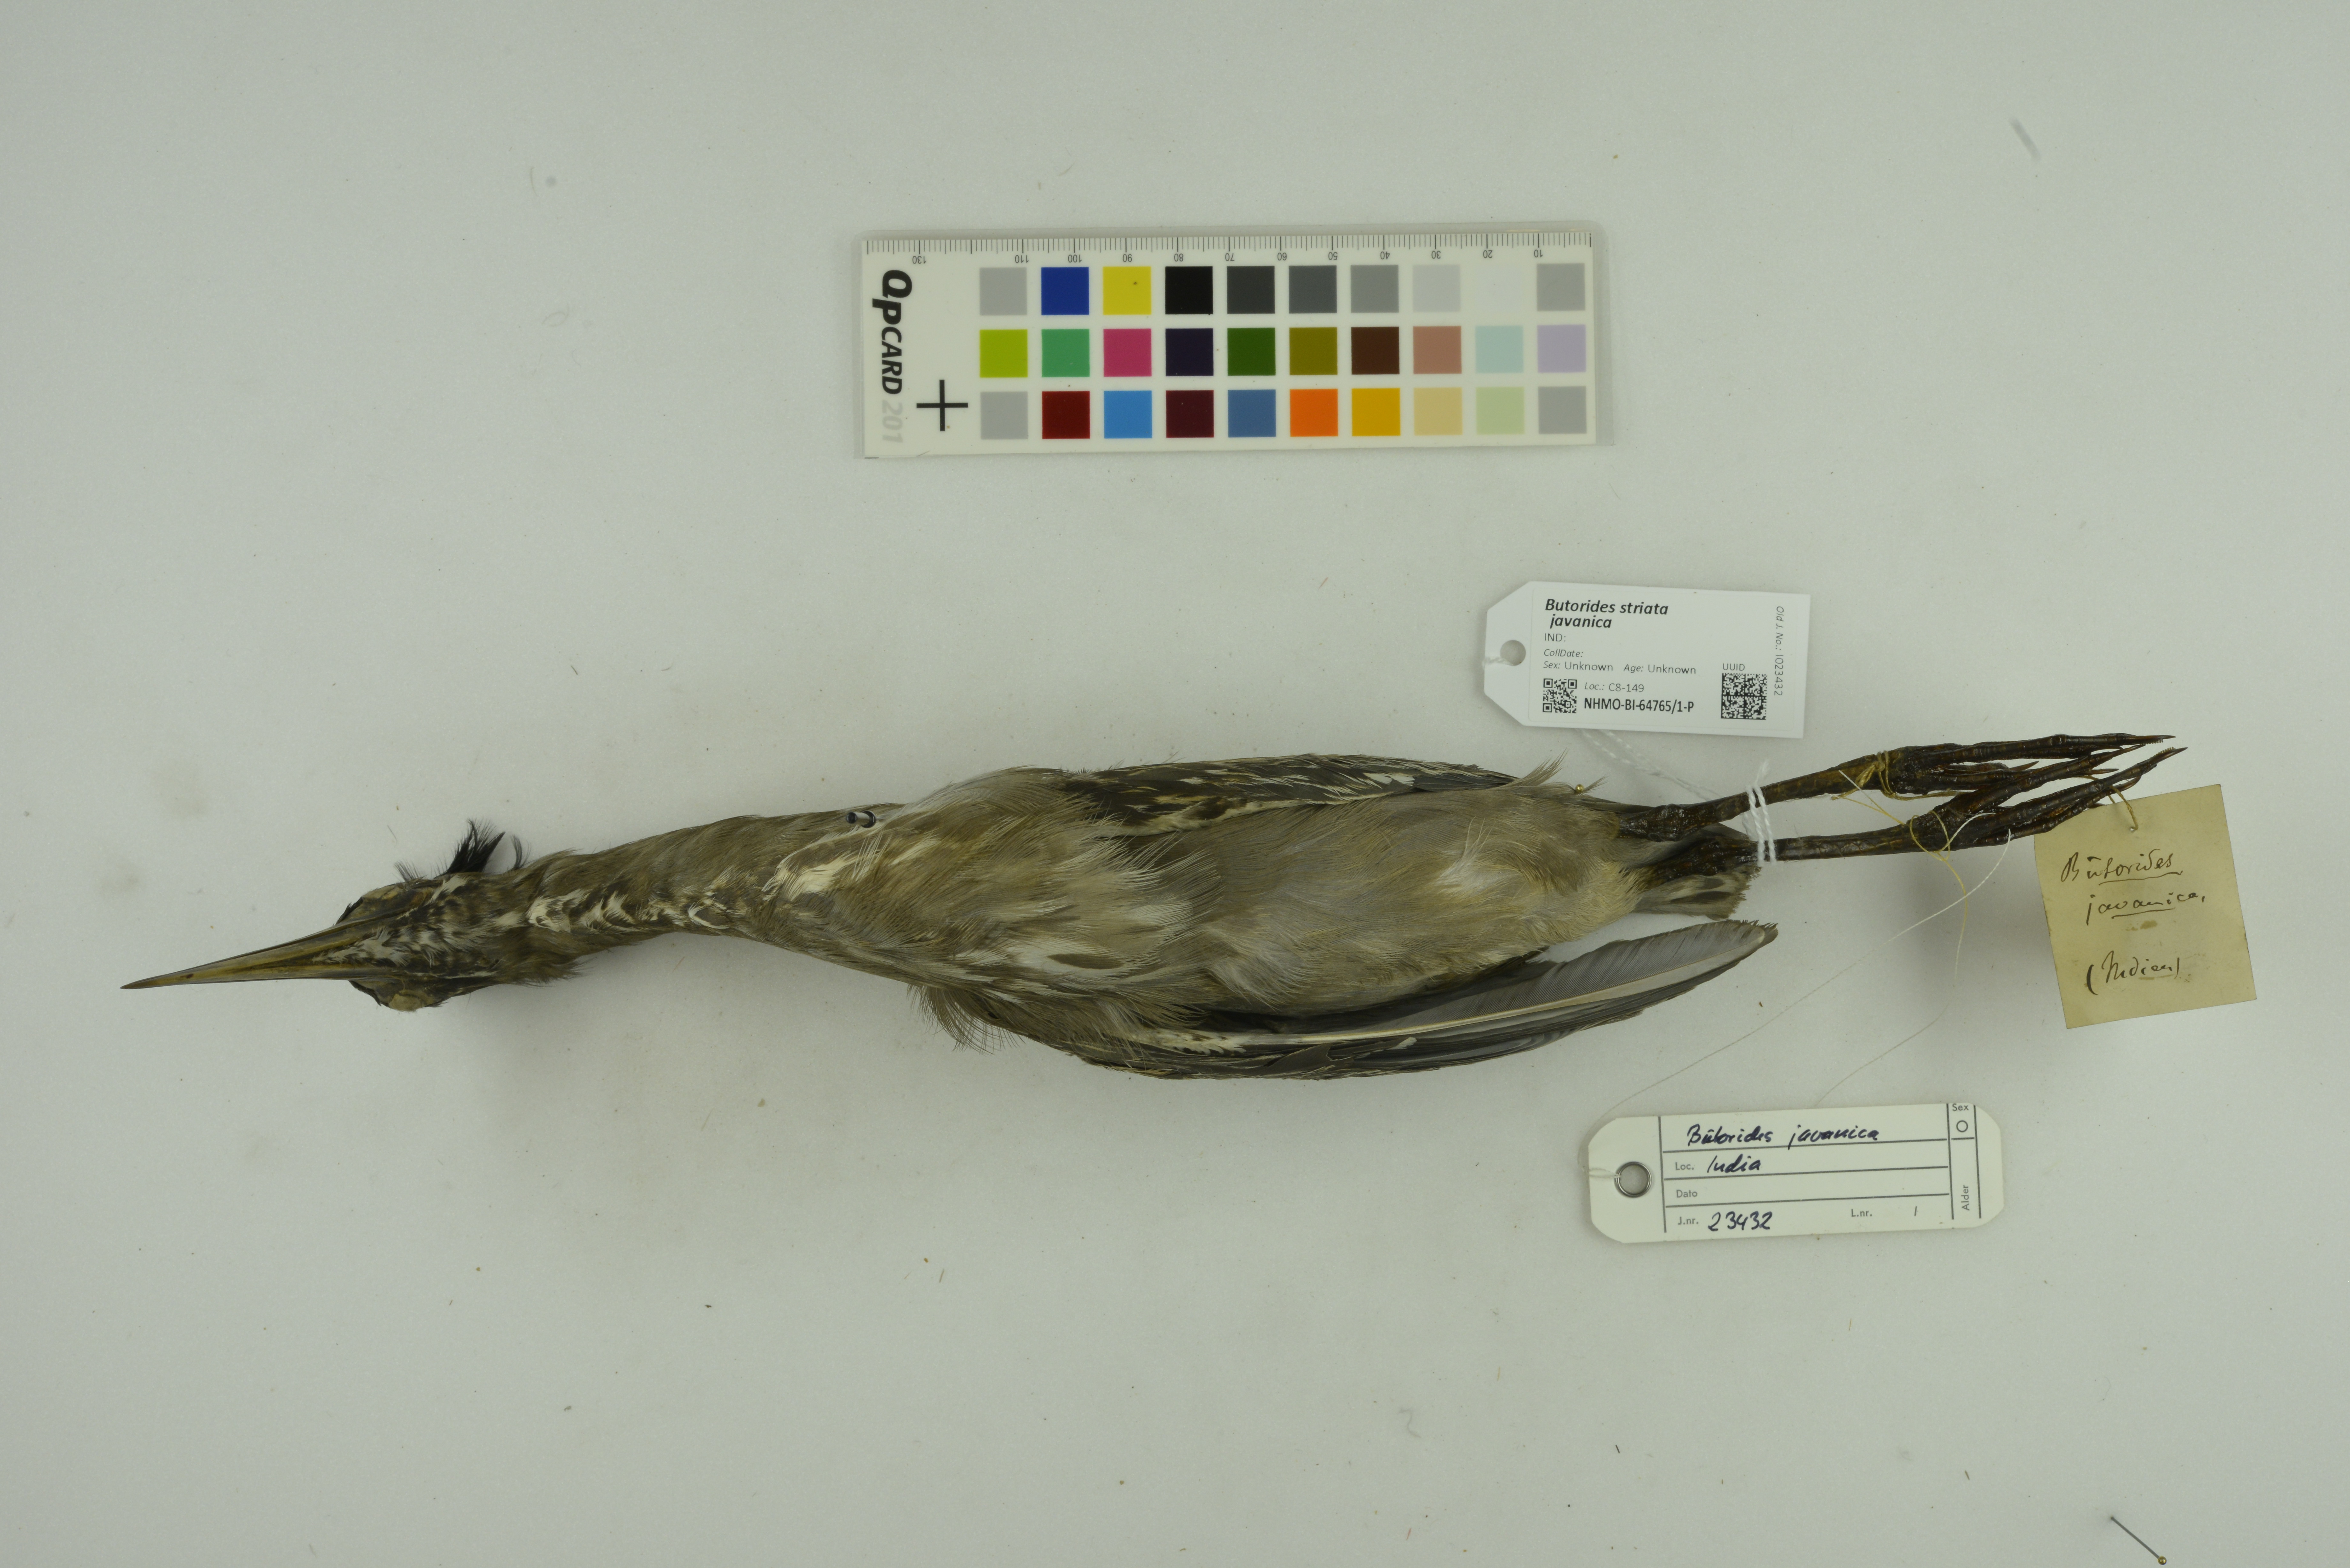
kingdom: Animalia
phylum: Chordata
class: Aves
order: Pelecaniformes
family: Ardeidae
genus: Butorides
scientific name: Butorides striata
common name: Striated heron
